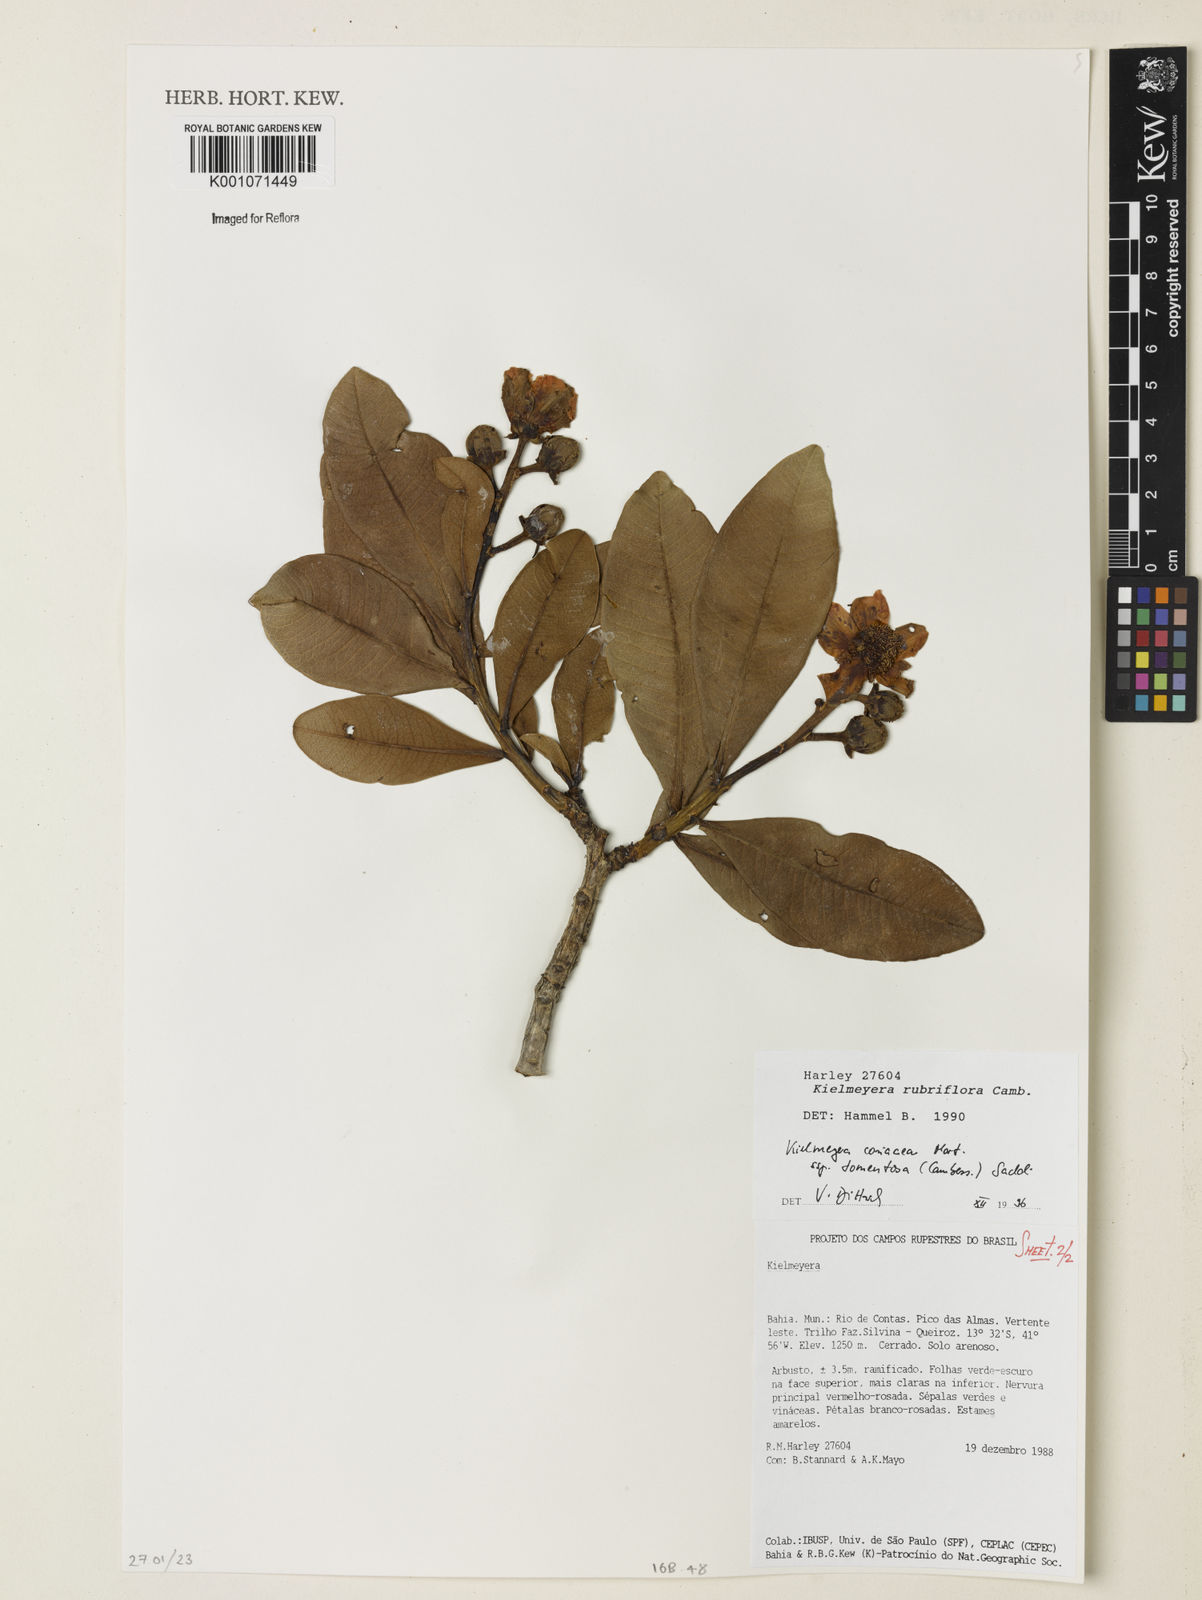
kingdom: Plantae
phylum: Tracheophyta
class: Magnoliopsida
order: Malpighiales
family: Calophyllaceae
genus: Kielmeyera
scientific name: Kielmeyera coriacea
